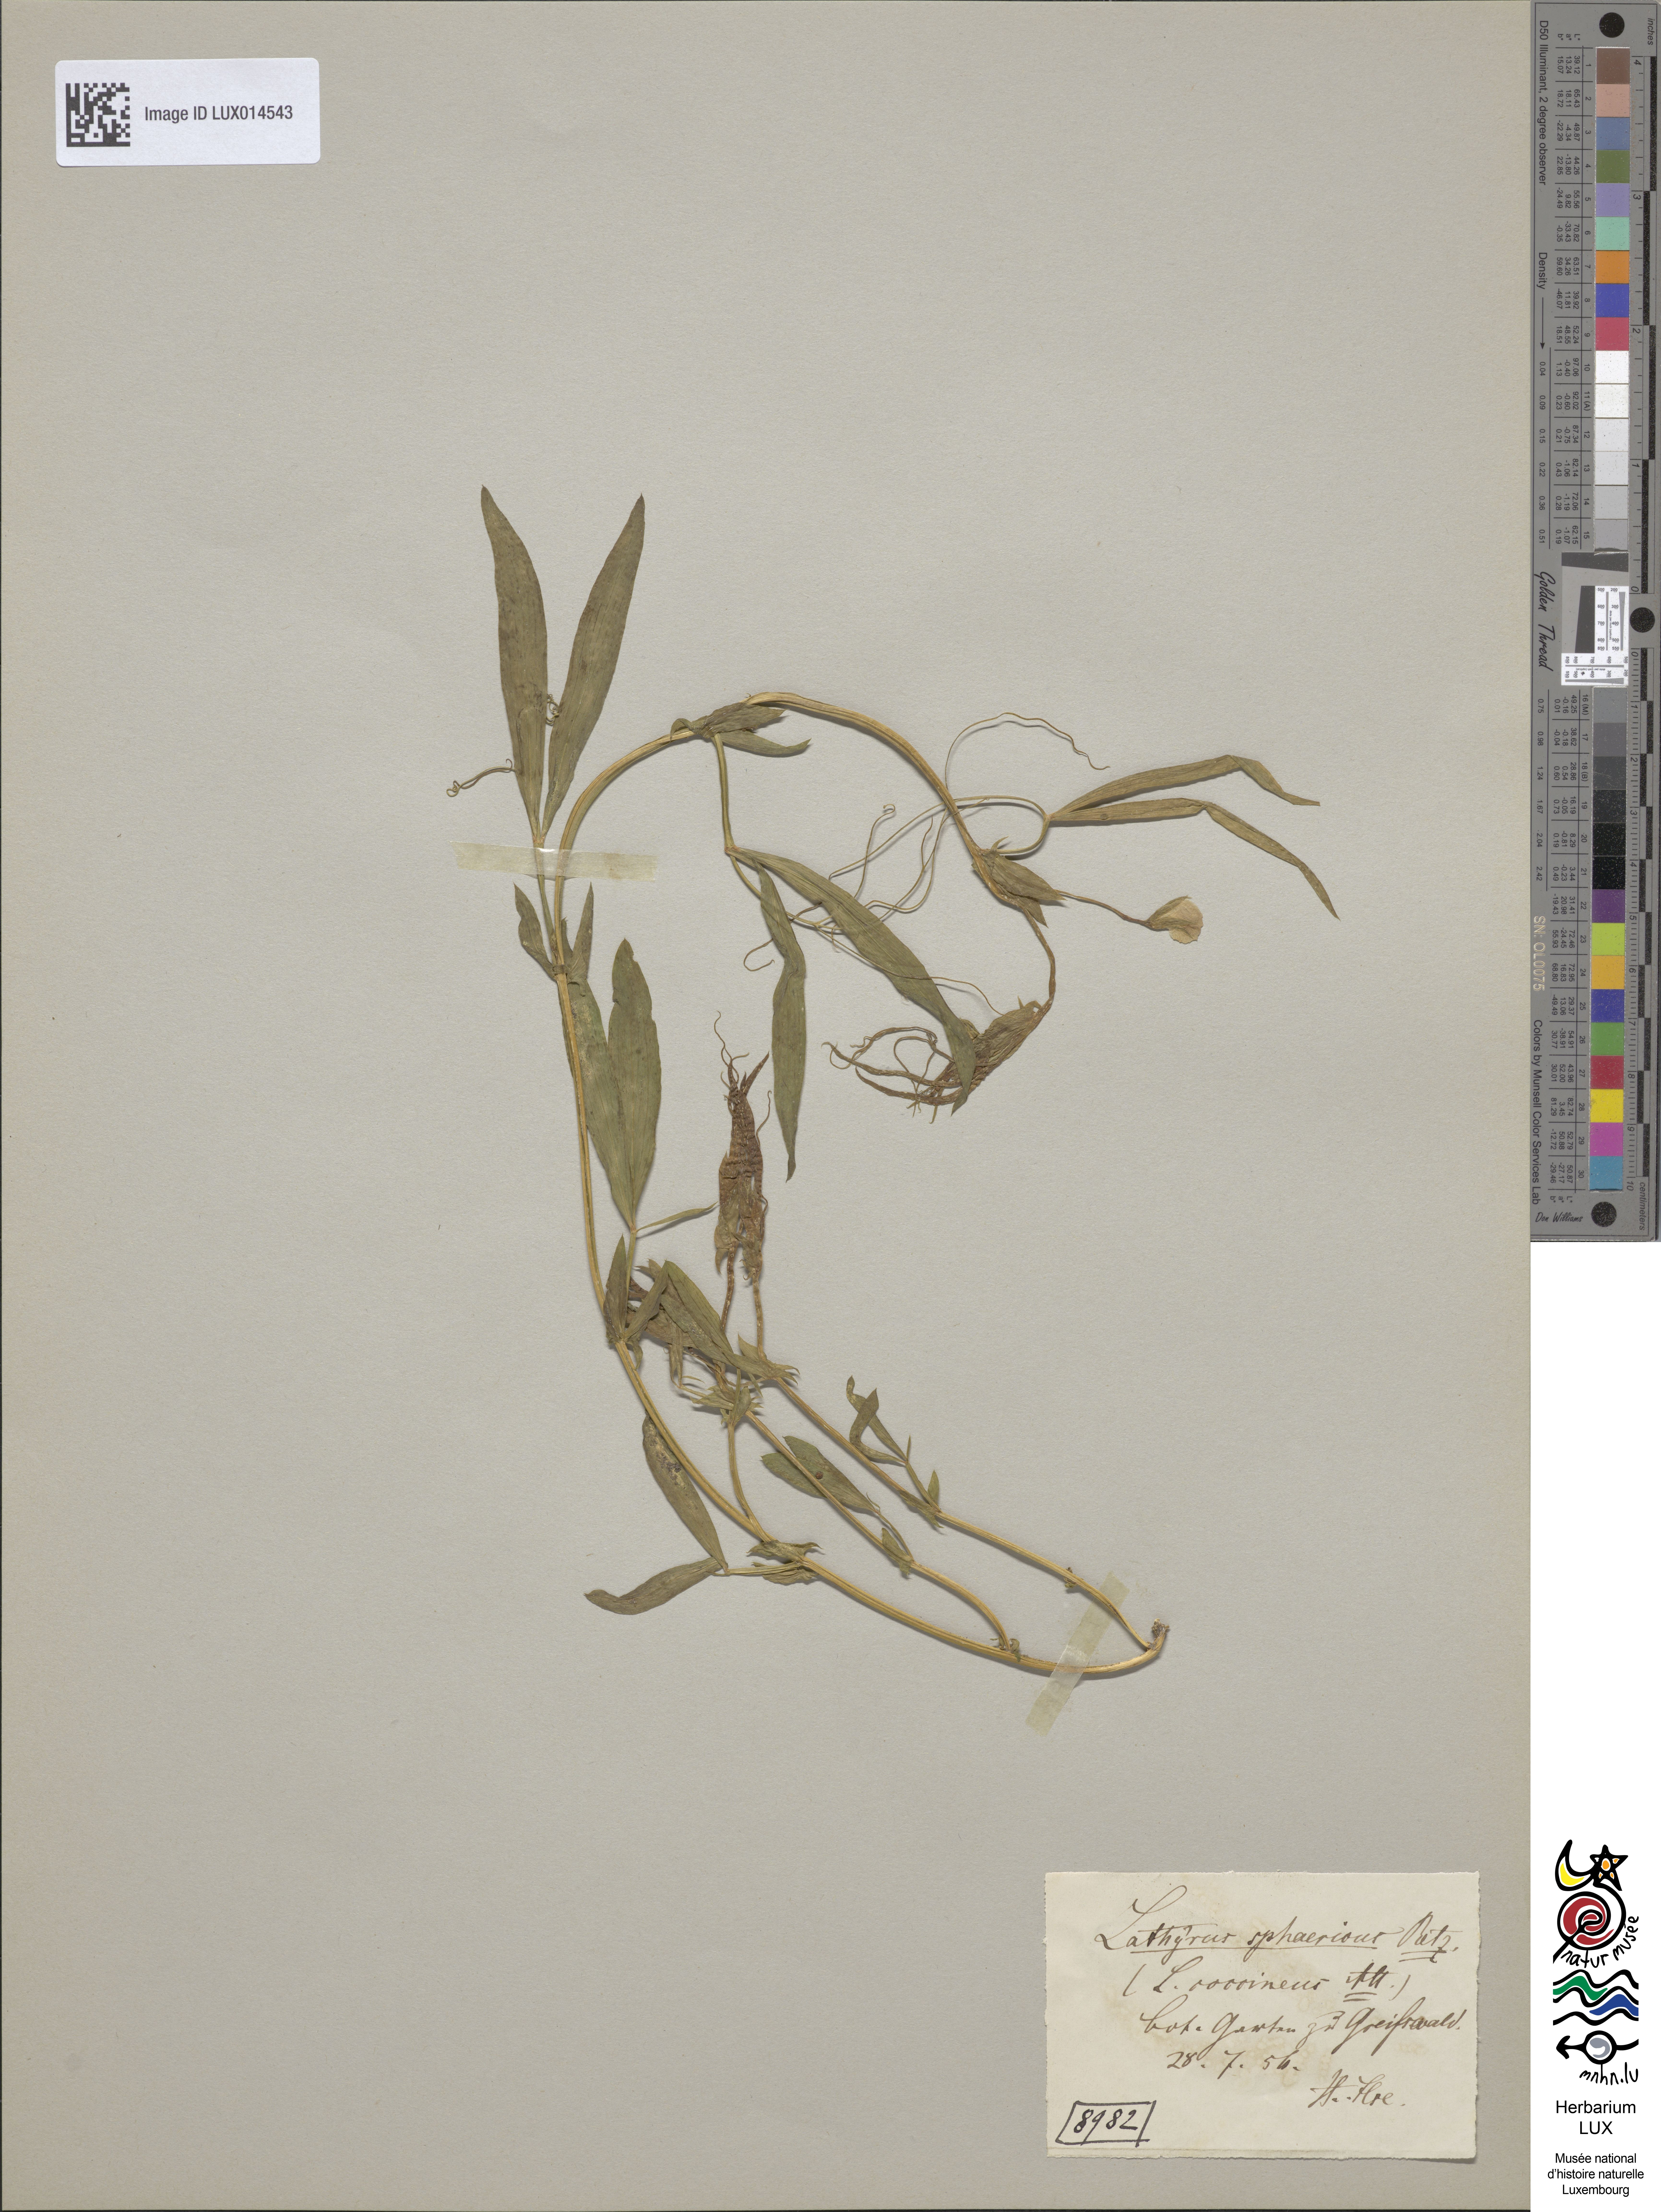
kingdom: Plantae
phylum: Tracheophyta
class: Magnoliopsida
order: Fabales
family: Fabaceae
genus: Lathyrus
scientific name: Lathyrus sphaericus
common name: Grass pea
